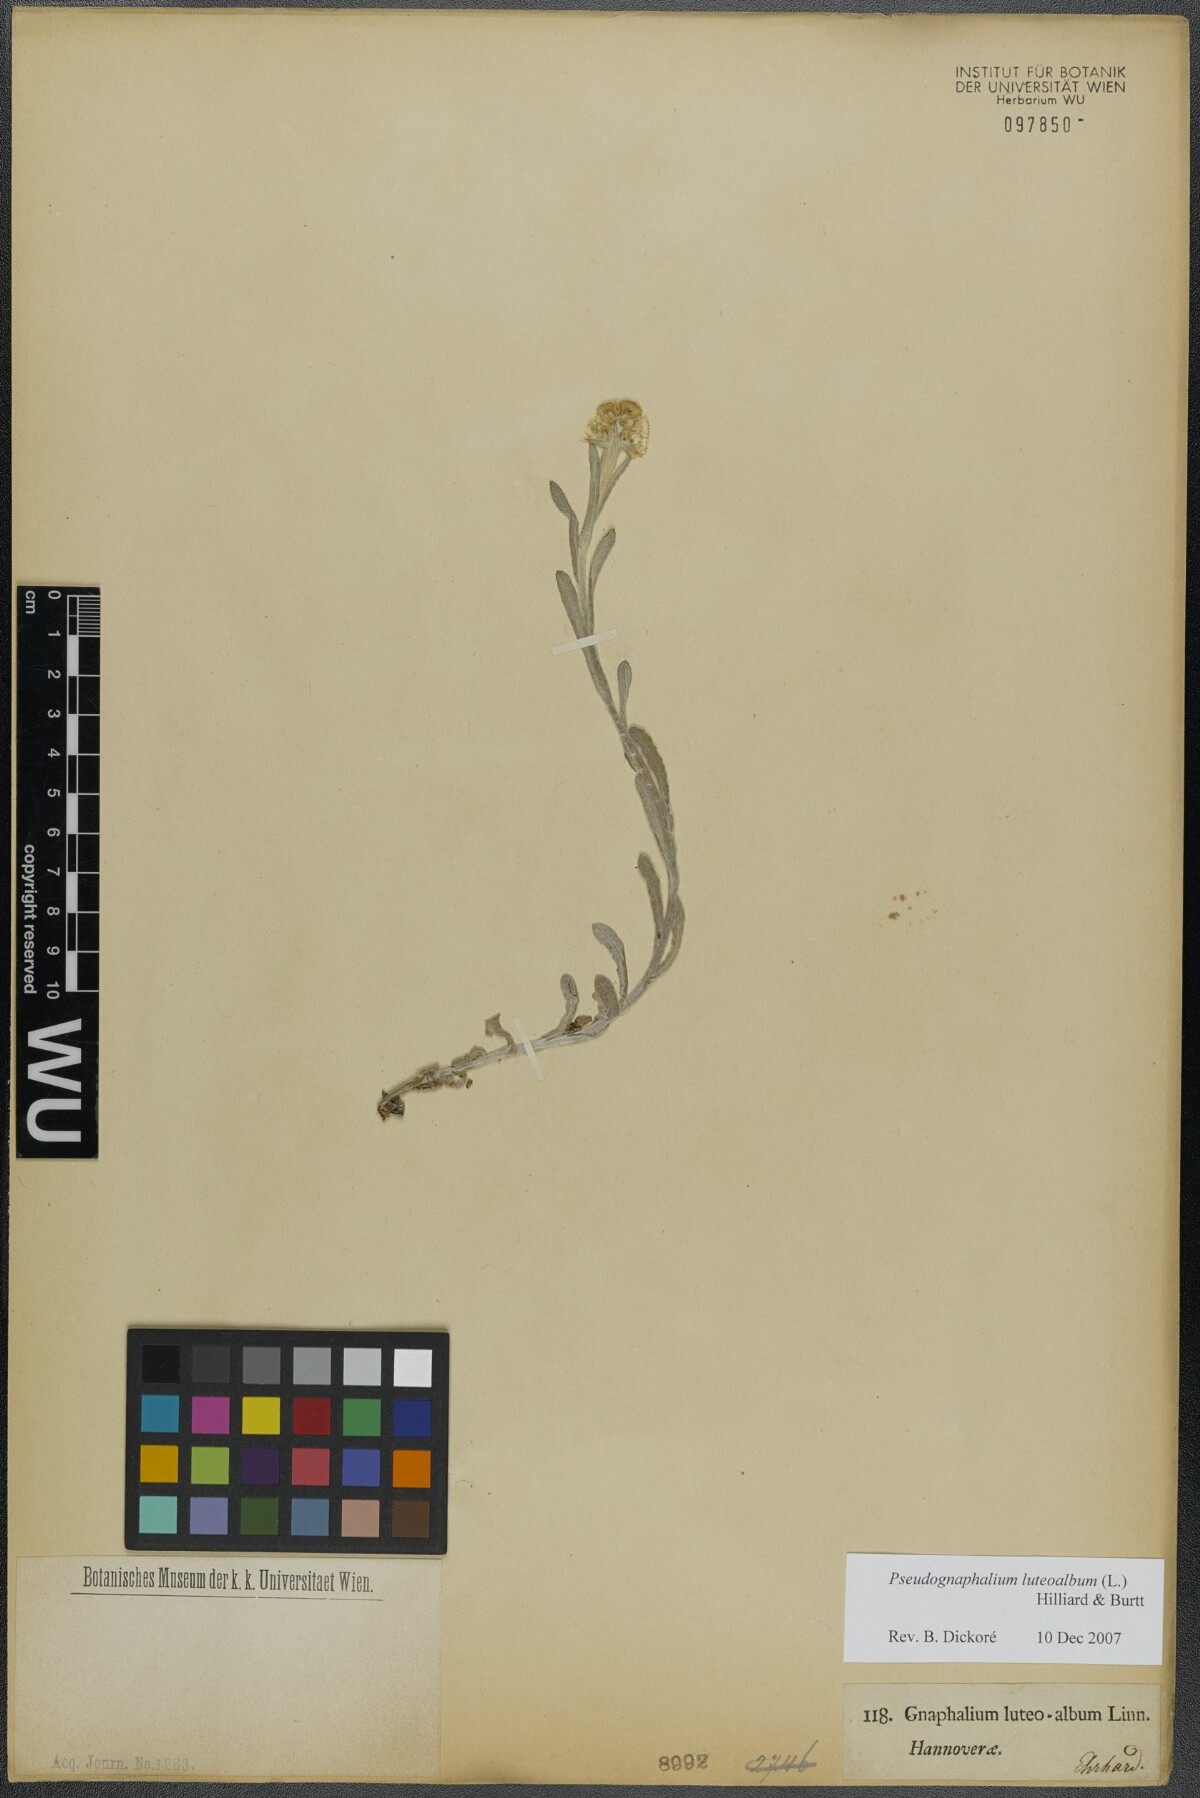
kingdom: Plantae
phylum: Tracheophyta
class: Magnoliopsida
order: Asterales
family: Asteraceae
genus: Helichrysum
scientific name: Helichrysum luteoalbum
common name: Daisy
